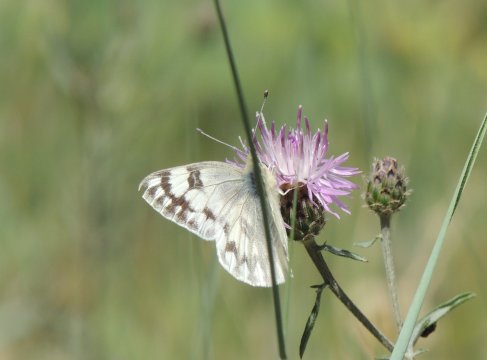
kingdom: Animalia
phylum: Arthropoda
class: Insecta
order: Lepidoptera
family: Pieridae
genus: Pontia
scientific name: Pontia occidentalis
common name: Western White
